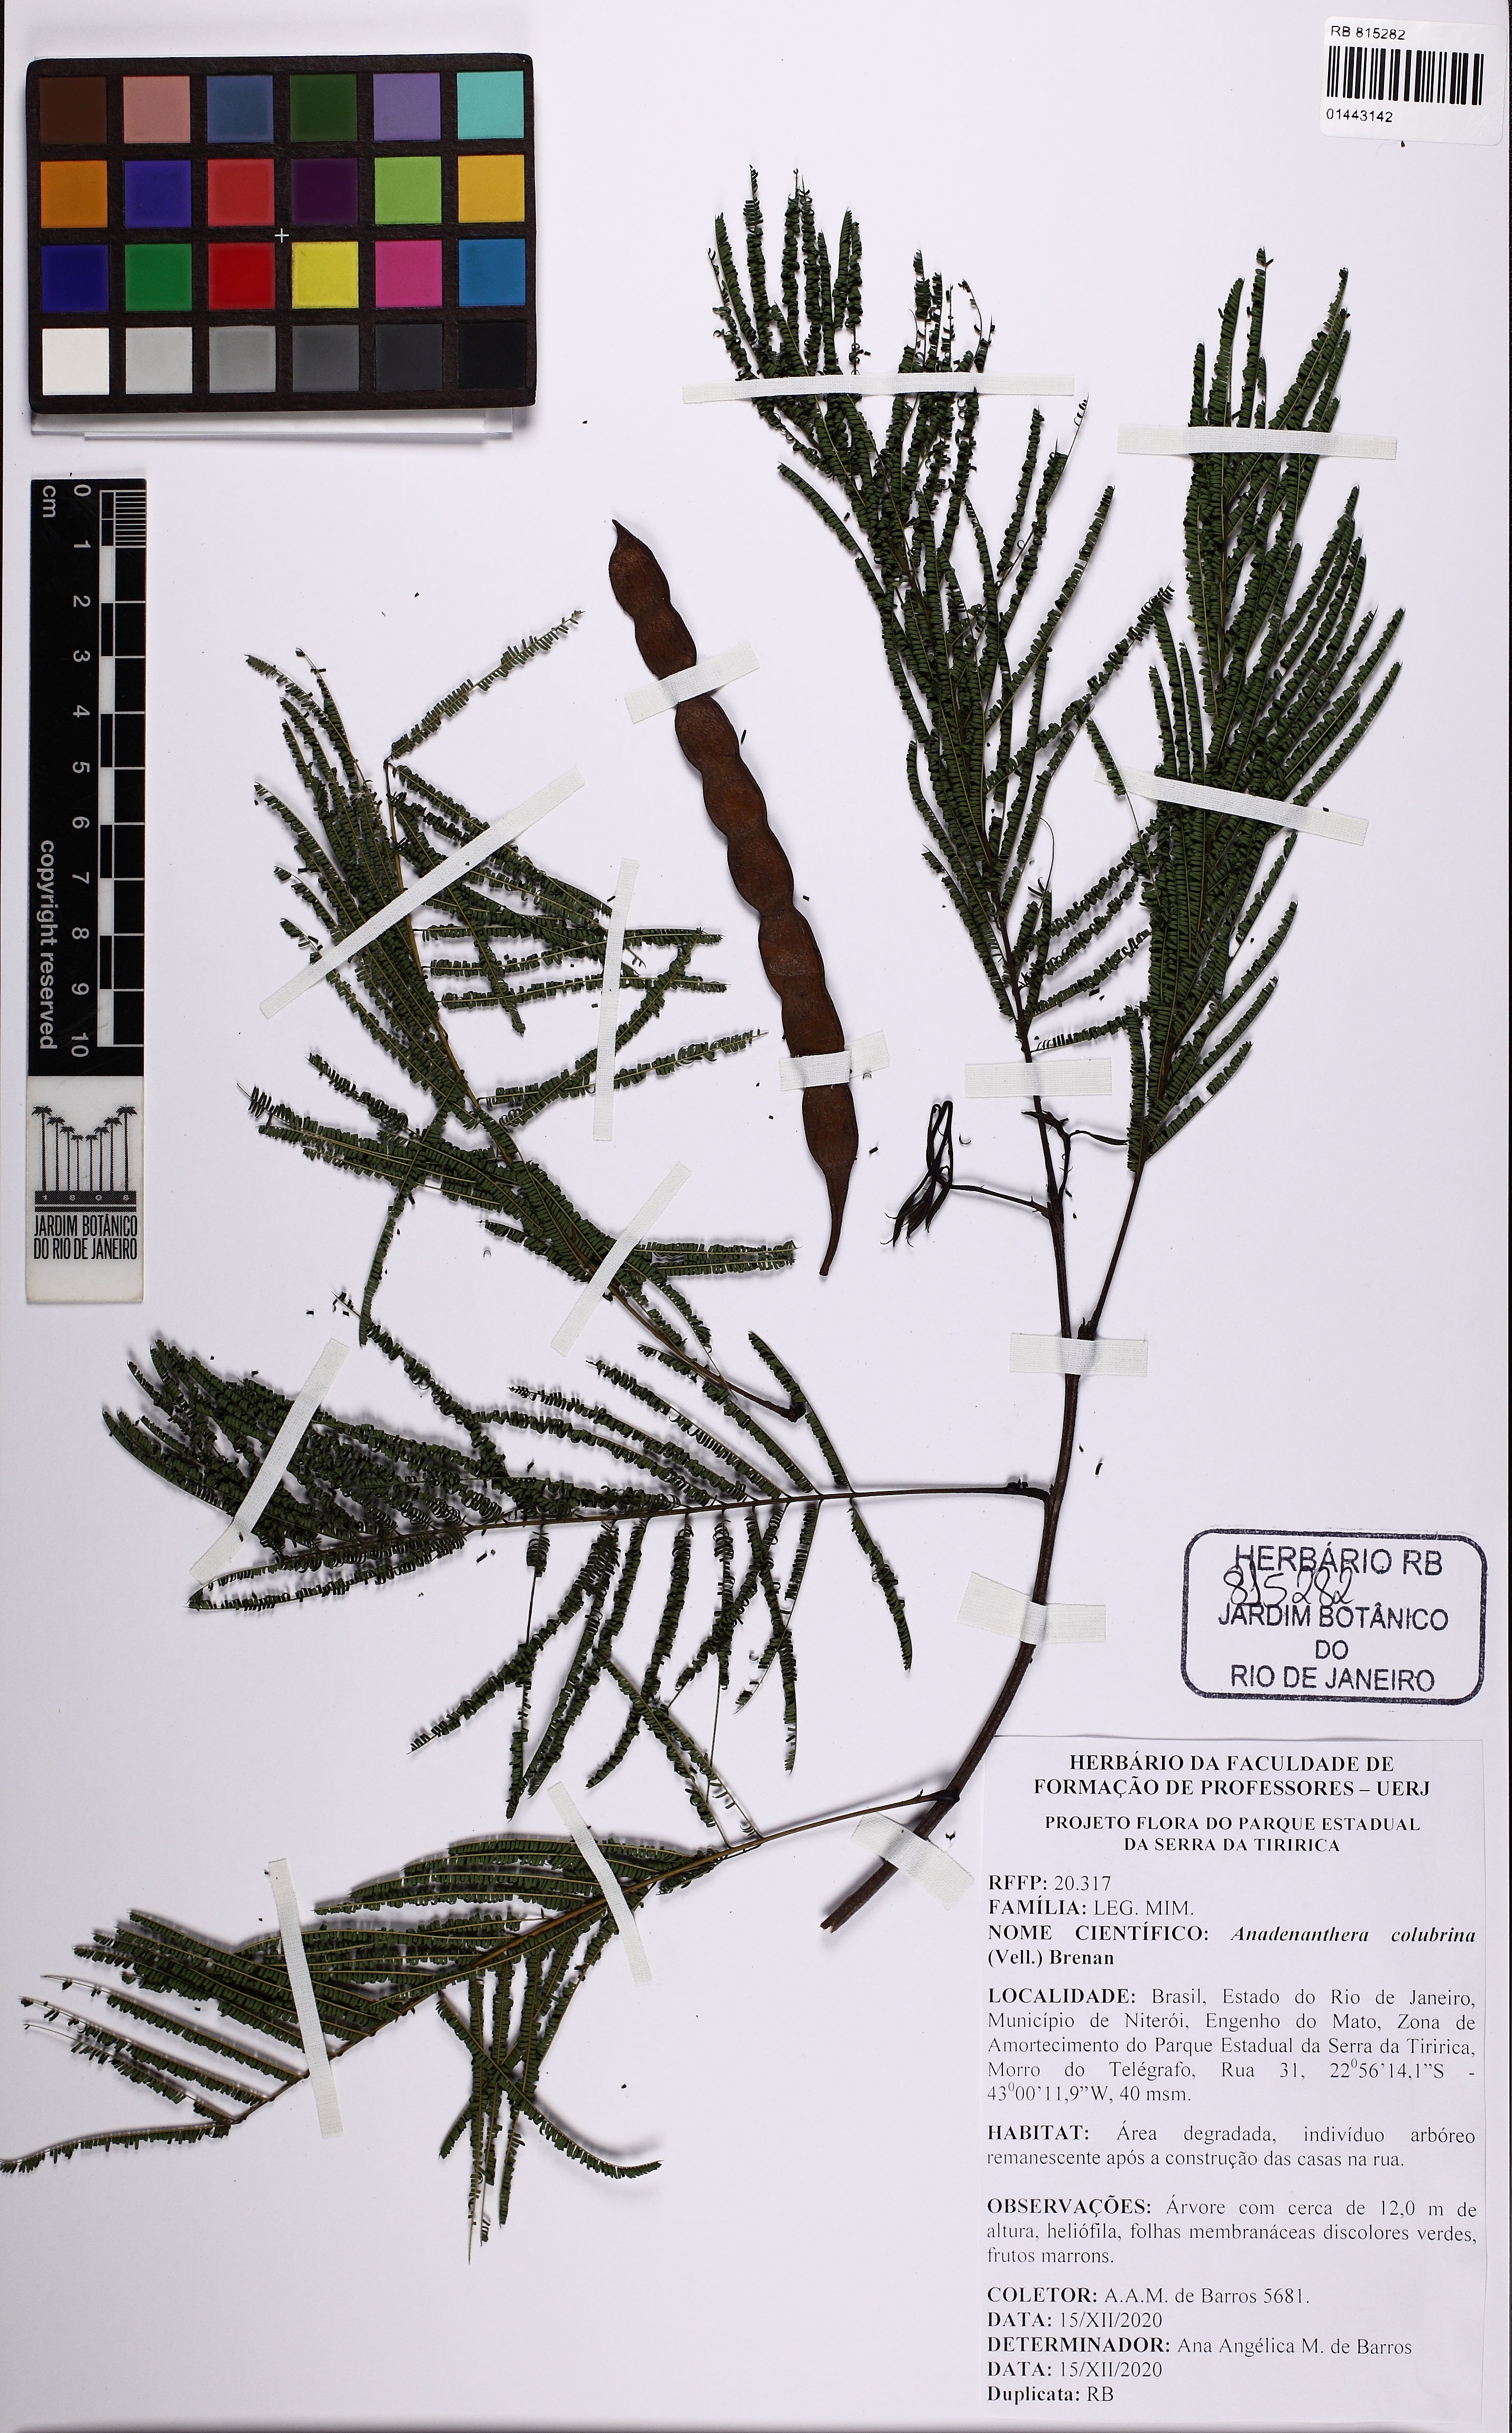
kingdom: Plantae
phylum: Tracheophyta
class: Magnoliopsida
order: Fabales
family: Fabaceae
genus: Anadenanthera
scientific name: Anadenanthera colubrina
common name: Curupay
